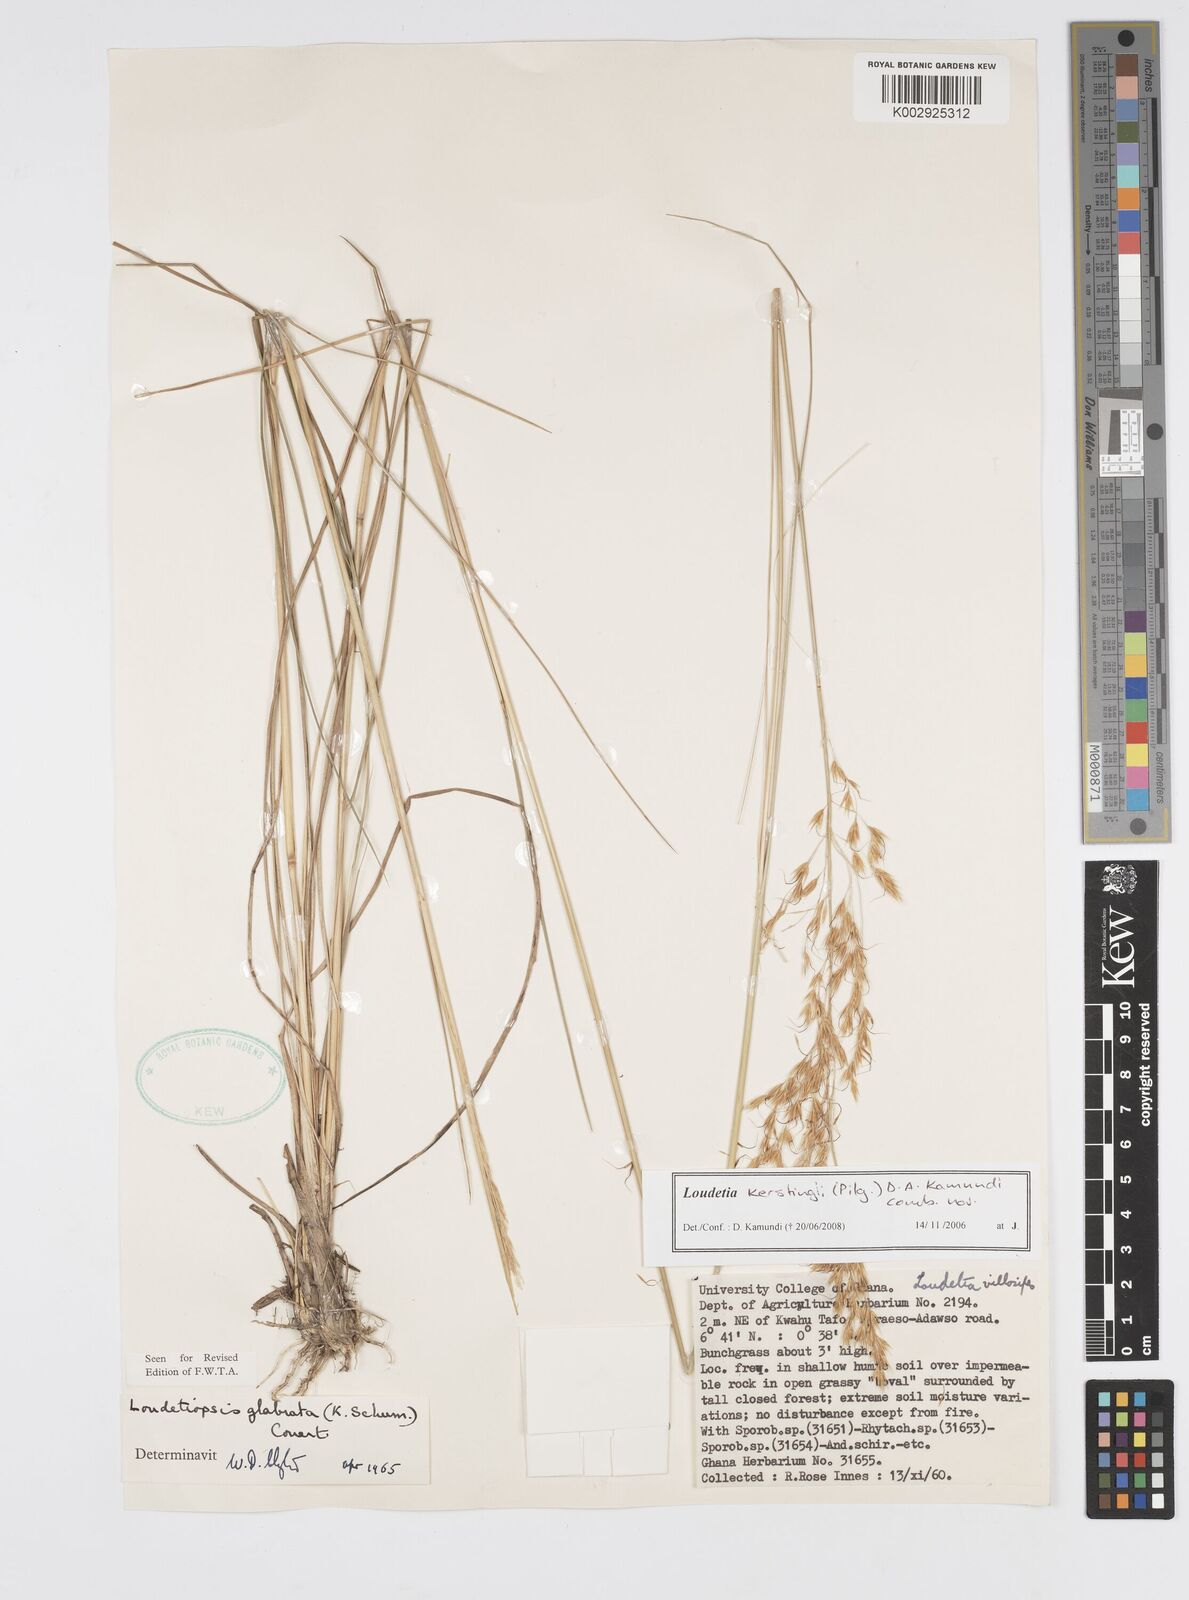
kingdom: Plantae
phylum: Tracheophyta
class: Liliopsida
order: Poales
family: Poaceae
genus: Loudetiopsis
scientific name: Loudetiopsis kerstingii
